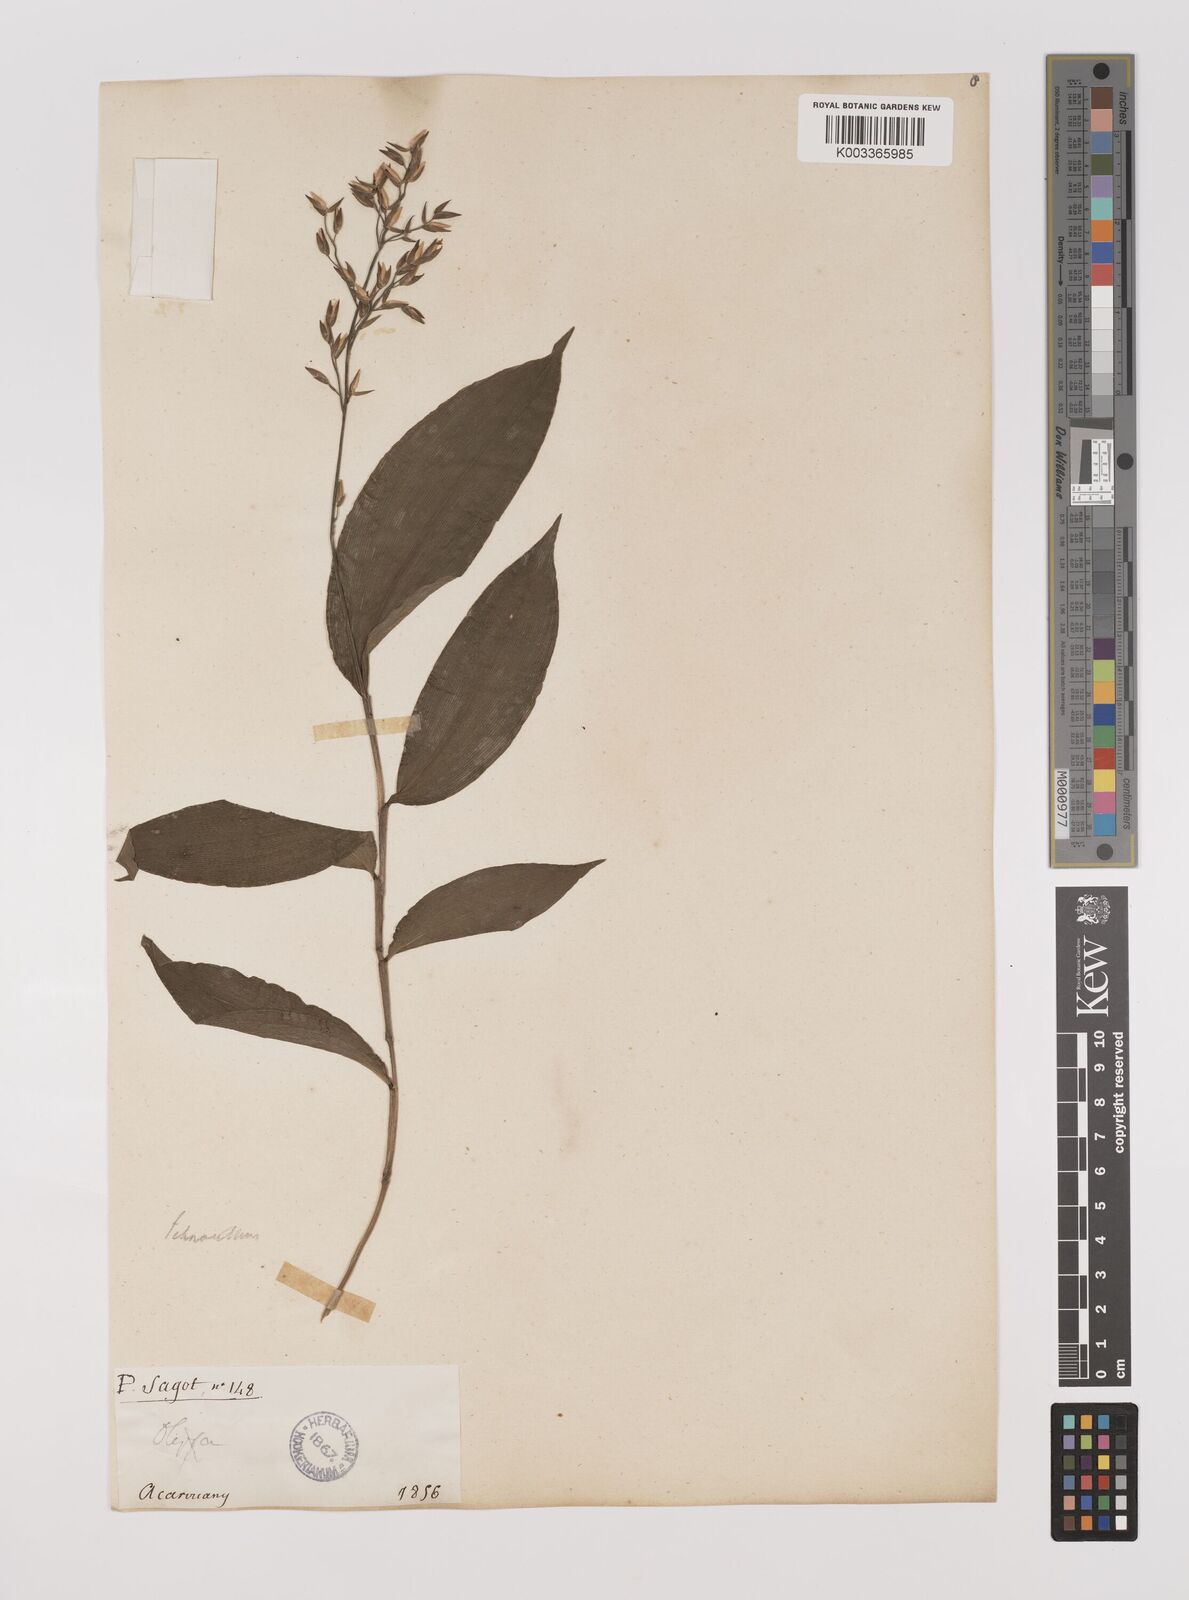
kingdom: Plantae
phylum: Tracheophyta
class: Liliopsida
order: Poales
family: Poaceae
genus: Ichnanthus
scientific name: Ichnanthus panicoides
